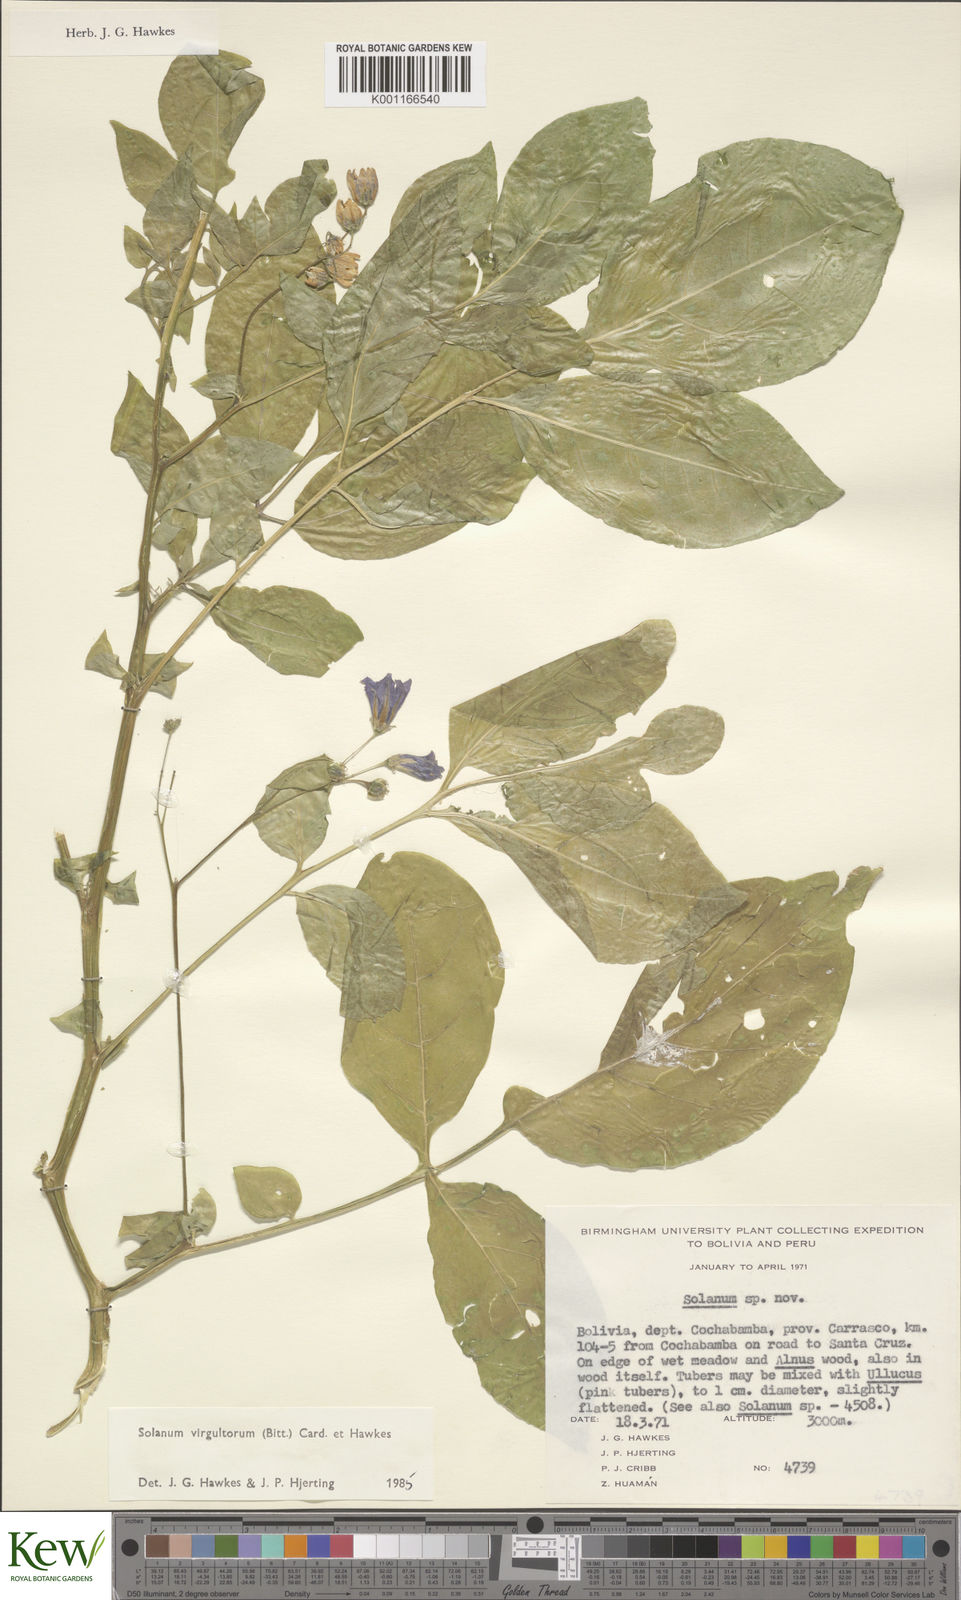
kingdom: Plantae
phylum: Tracheophyta
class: Magnoliopsida
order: Solanales
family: Solanaceae
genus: Solanum
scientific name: Solanum
